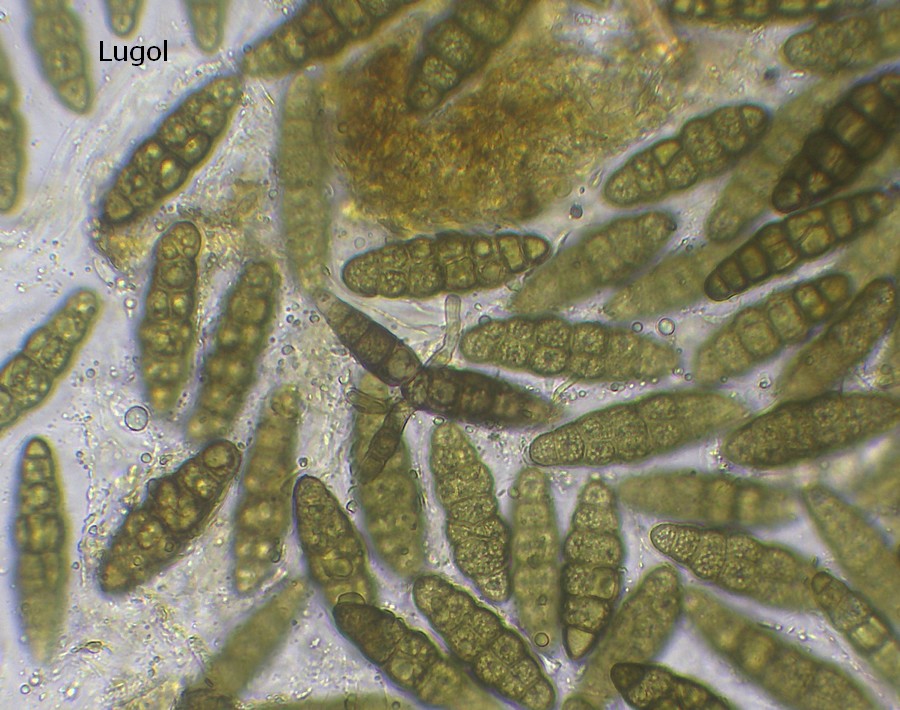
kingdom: Fungi
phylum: Ascomycota
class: Dothideomycetes
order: Pleosporales
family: Pleomassariaceae
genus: Pleomassaria
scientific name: Pleomassaria siparia
